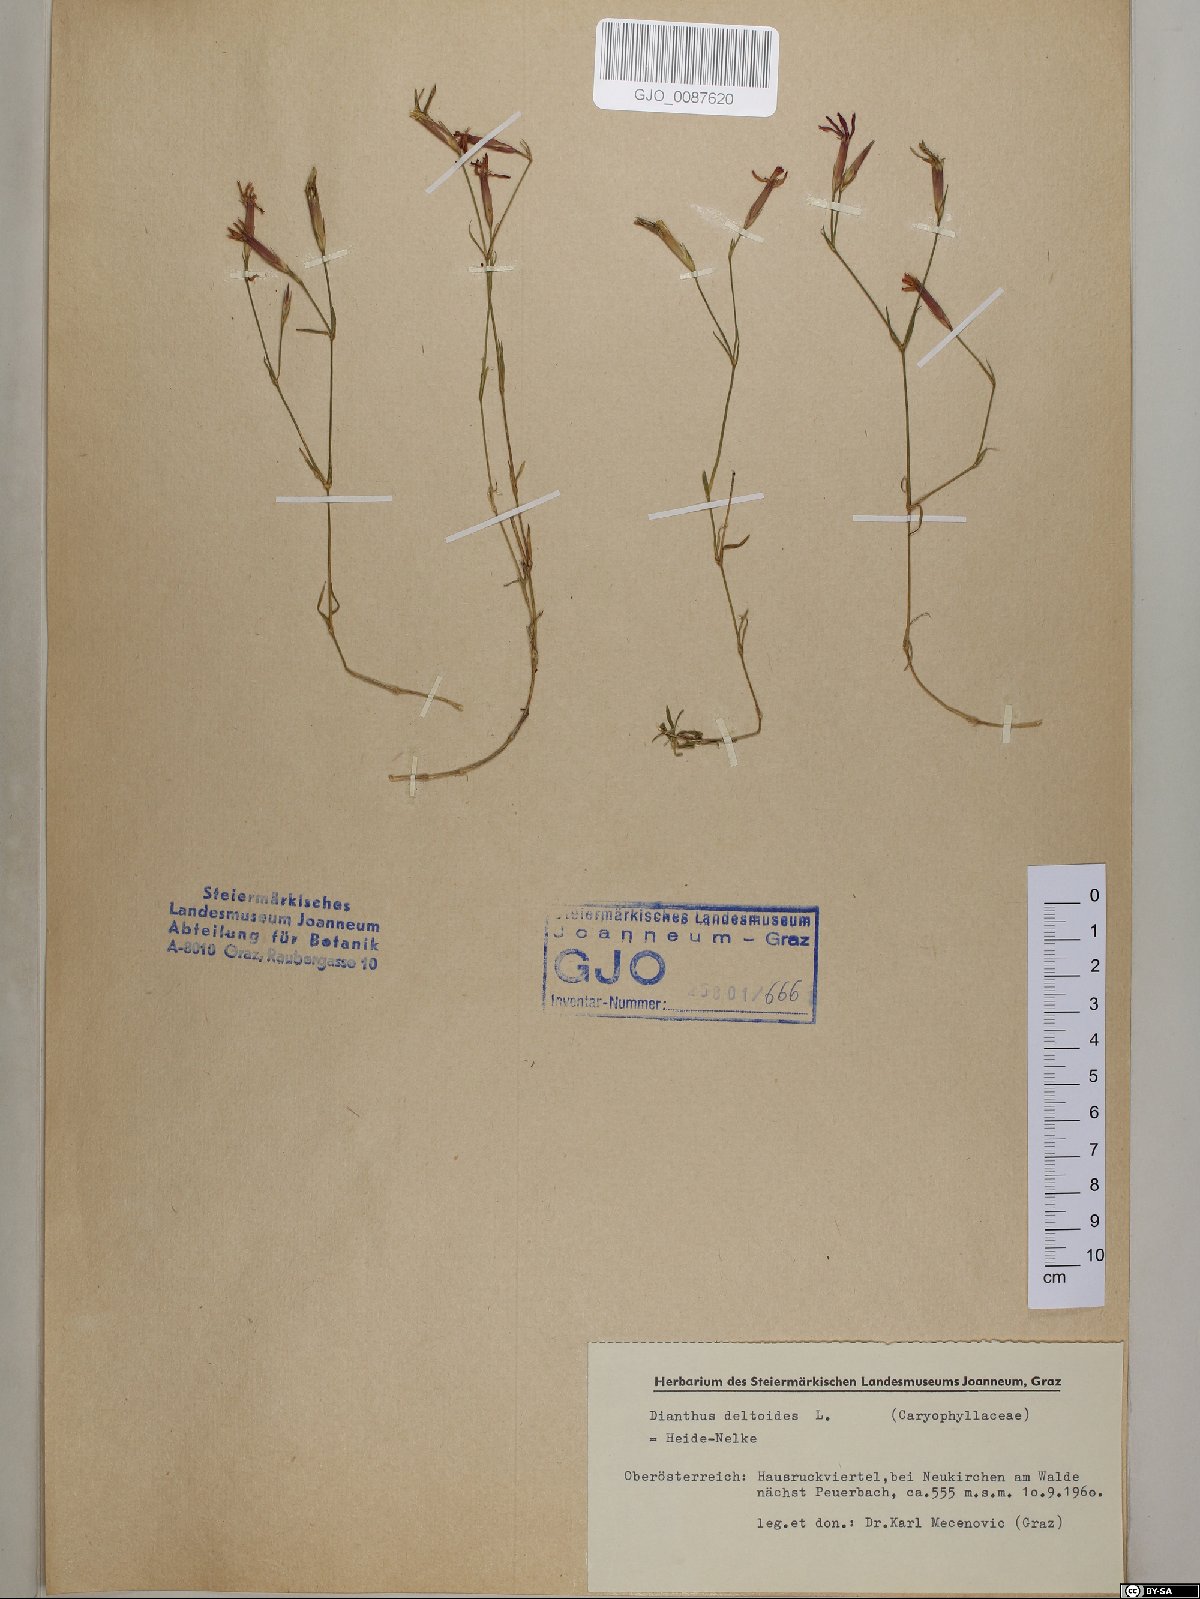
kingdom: Plantae
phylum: Tracheophyta
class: Magnoliopsida
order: Caryophyllales
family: Caryophyllaceae
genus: Dianthus
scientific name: Dianthus deltoides
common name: Maiden pink
